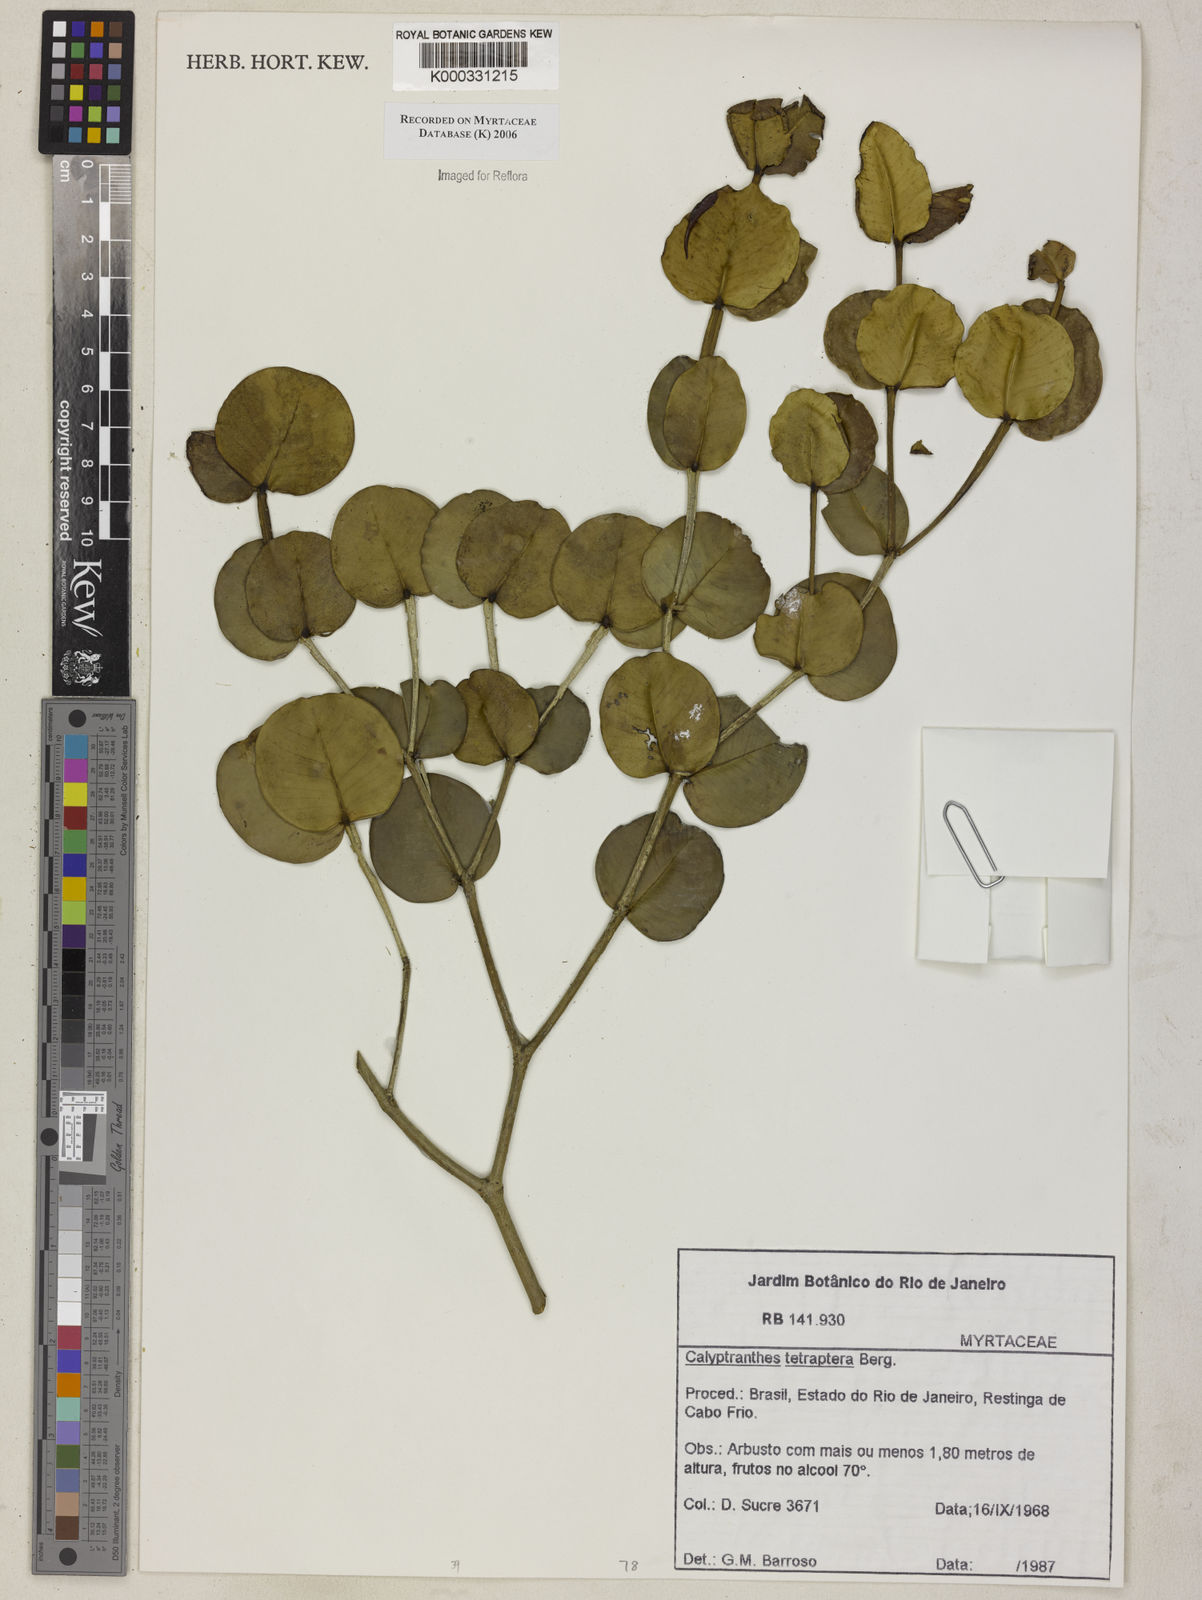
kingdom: Plantae
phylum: Tracheophyta
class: Magnoliopsida
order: Myrtales
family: Myrtaceae
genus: Myrcia
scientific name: Myrcia tetraptera
